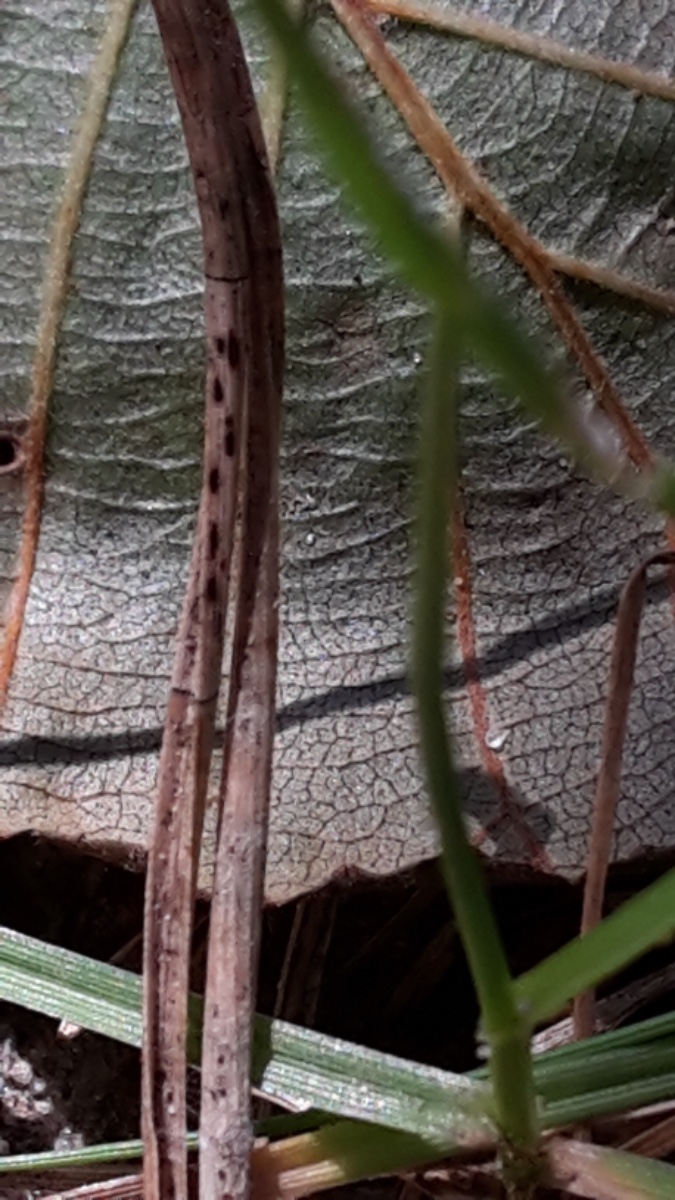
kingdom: Fungi
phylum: Ascomycota
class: Leotiomycetes
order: Rhytismatales
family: Rhytismataceae
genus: Lophodermium
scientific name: Lophodermium
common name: fureplet
